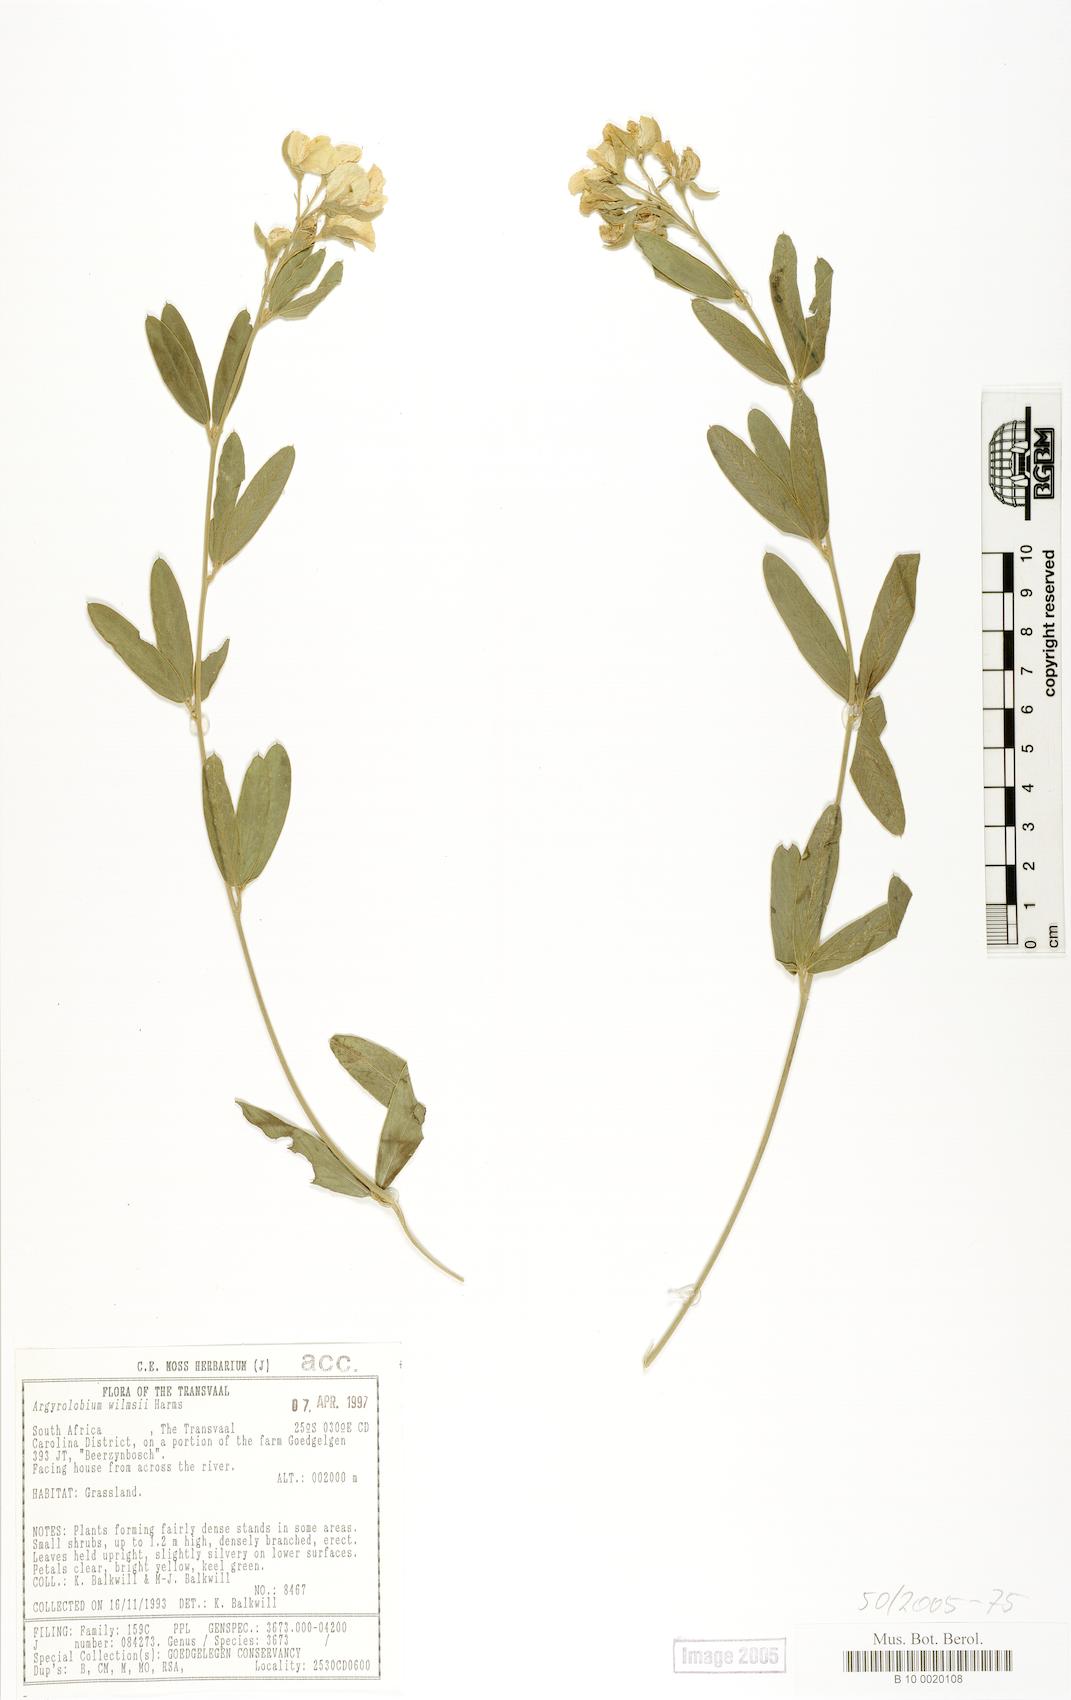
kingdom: Plantae
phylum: Tracheophyta
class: Magnoliopsida
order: Fabales
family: Fabaceae
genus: Argyrolobium
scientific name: Argyrolobium wilmsii
